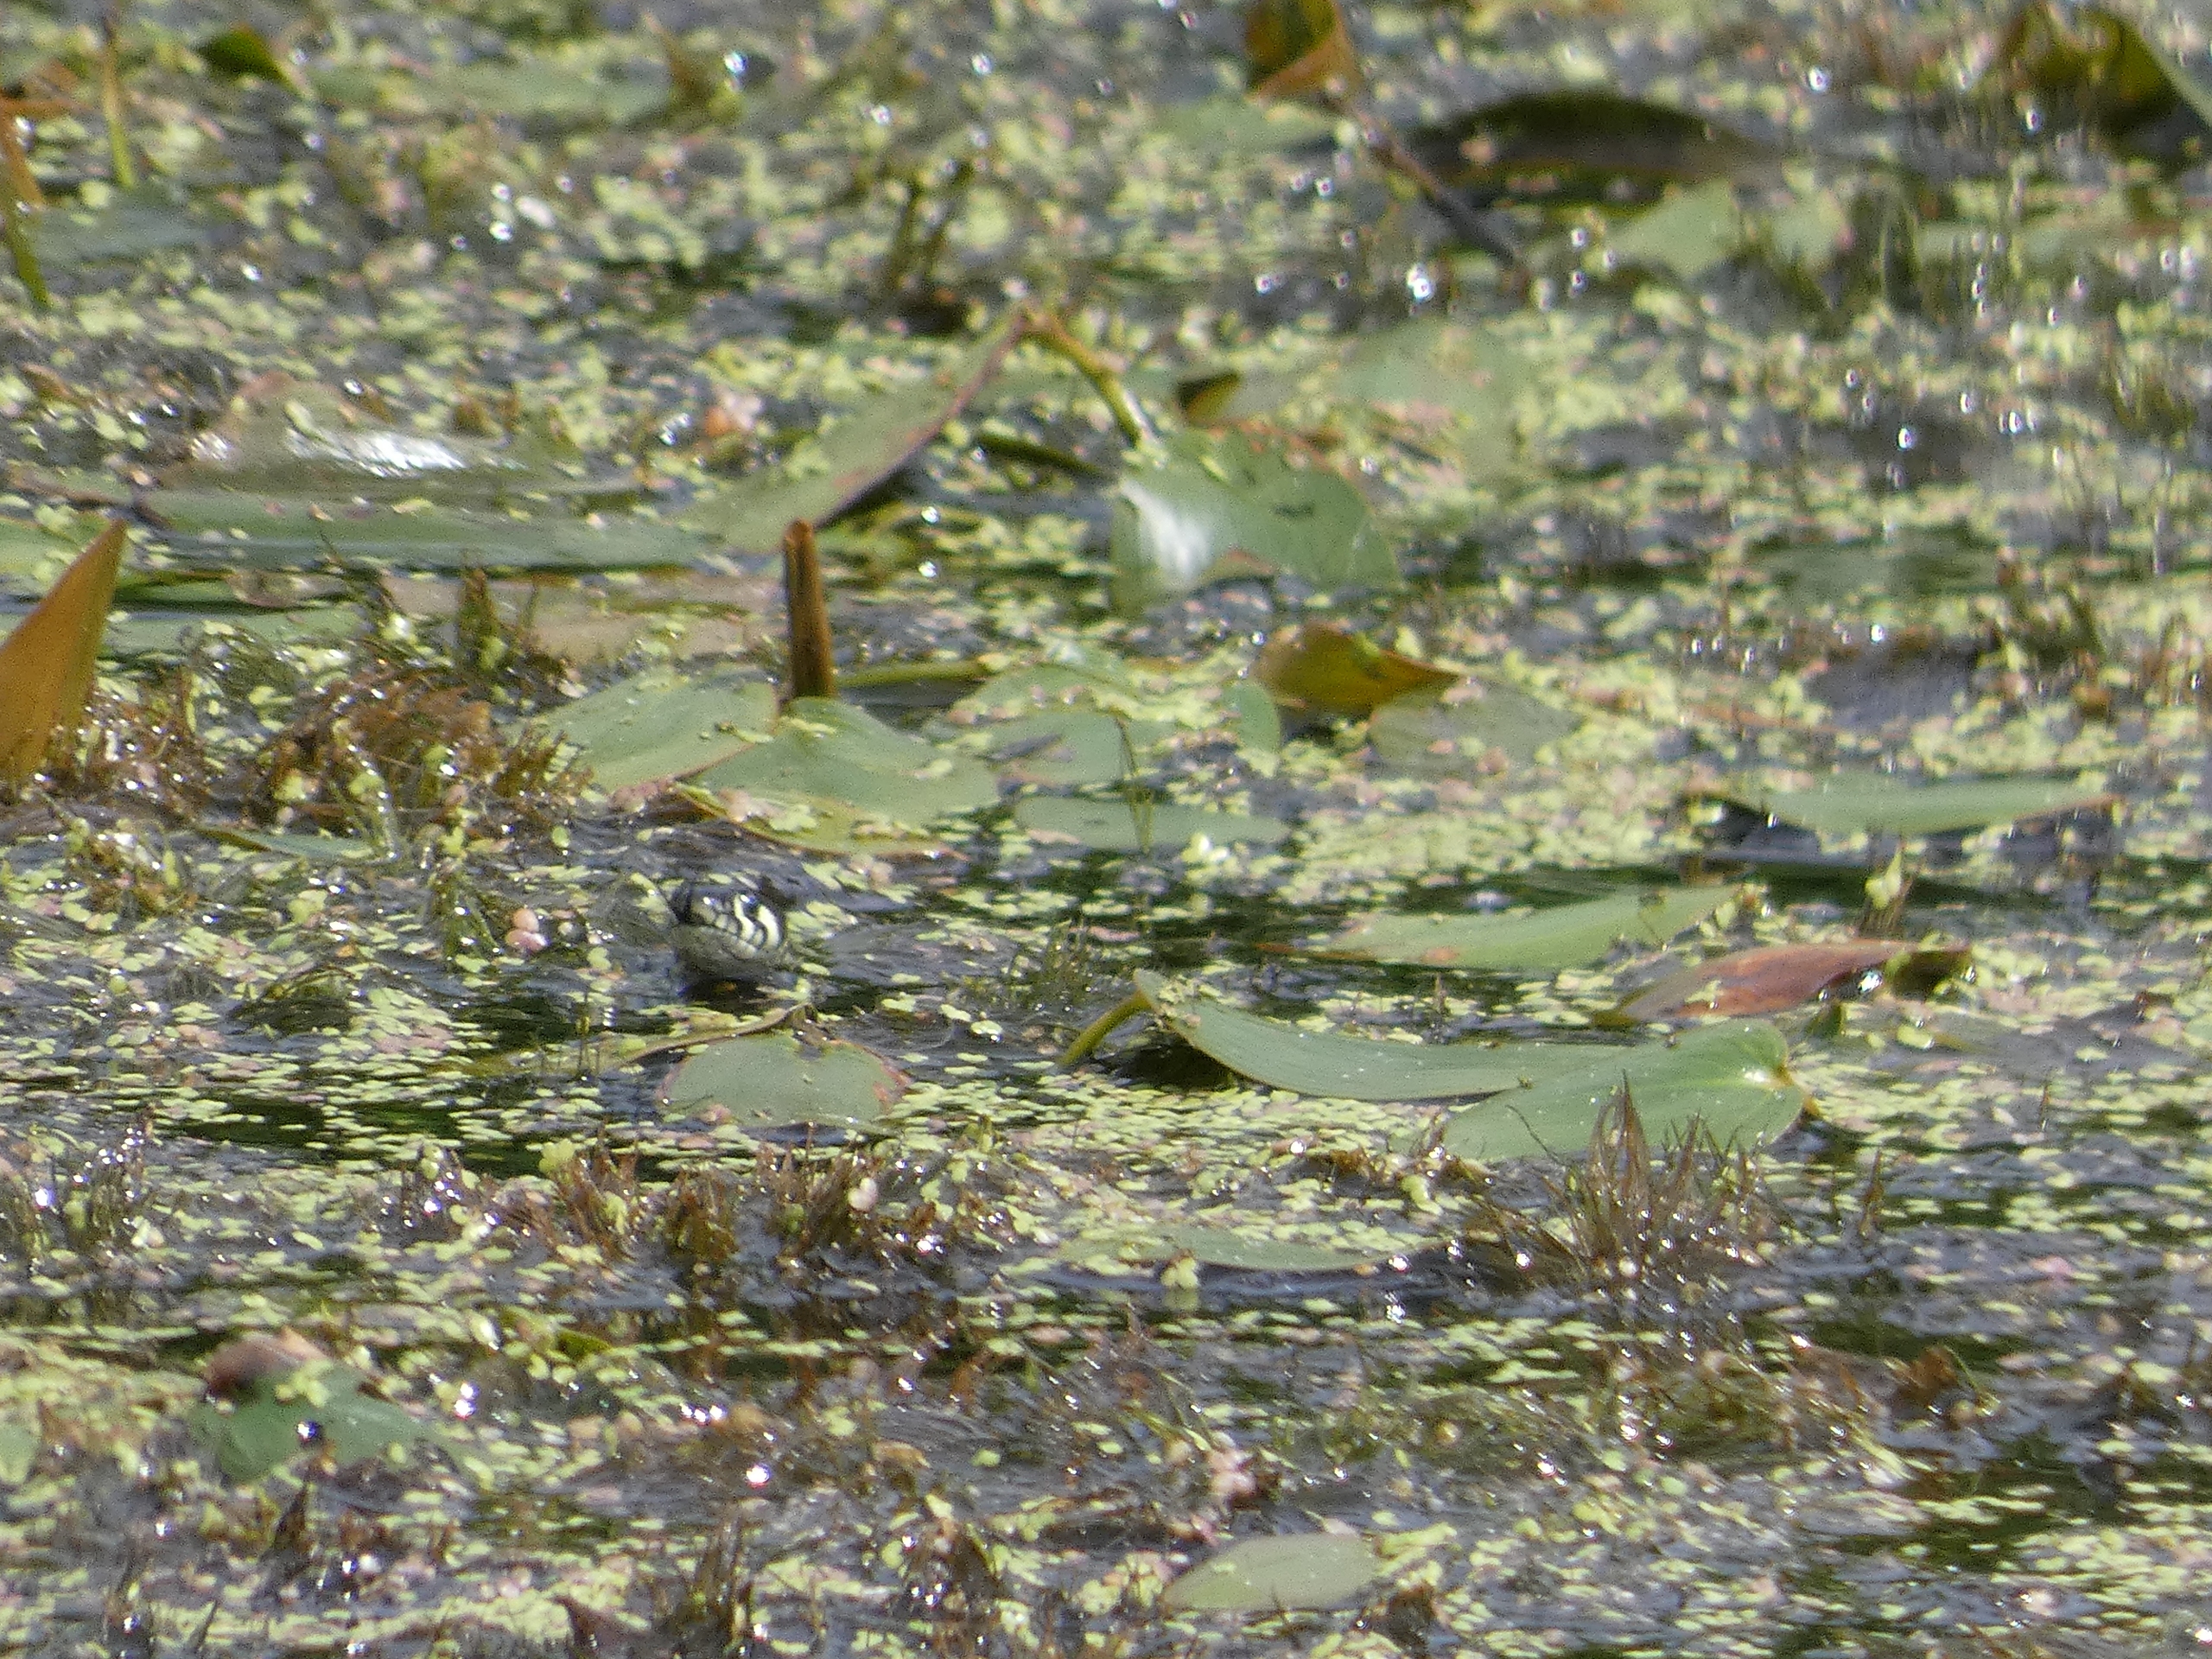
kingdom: Animalia
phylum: Chordata
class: Squamata
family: Colubridae
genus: Natrix
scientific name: Natrix natrix
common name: Snog
